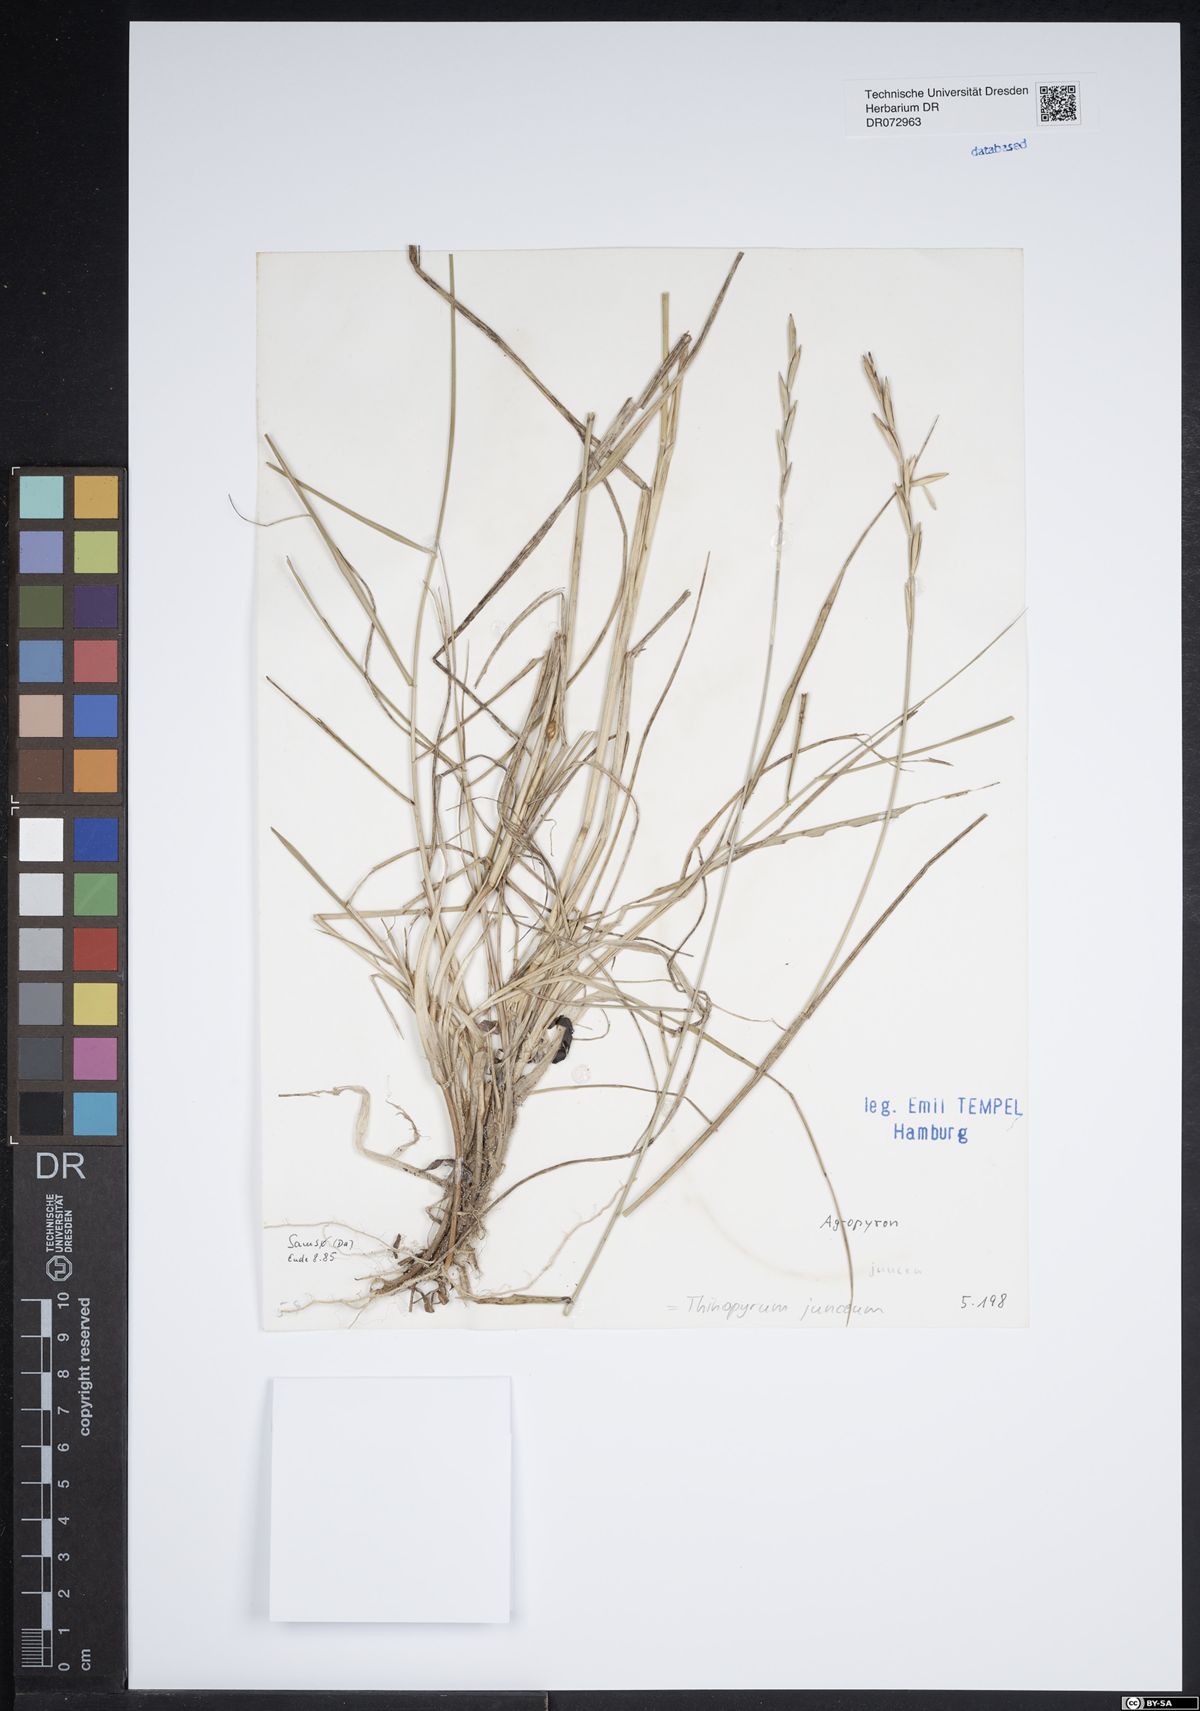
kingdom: Plantae
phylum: Tracheophyta
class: Liliopsida
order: Poales
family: Poaceae
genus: Thinopyrum
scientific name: Thinopyrum junceum
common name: Russian wheatgrass
